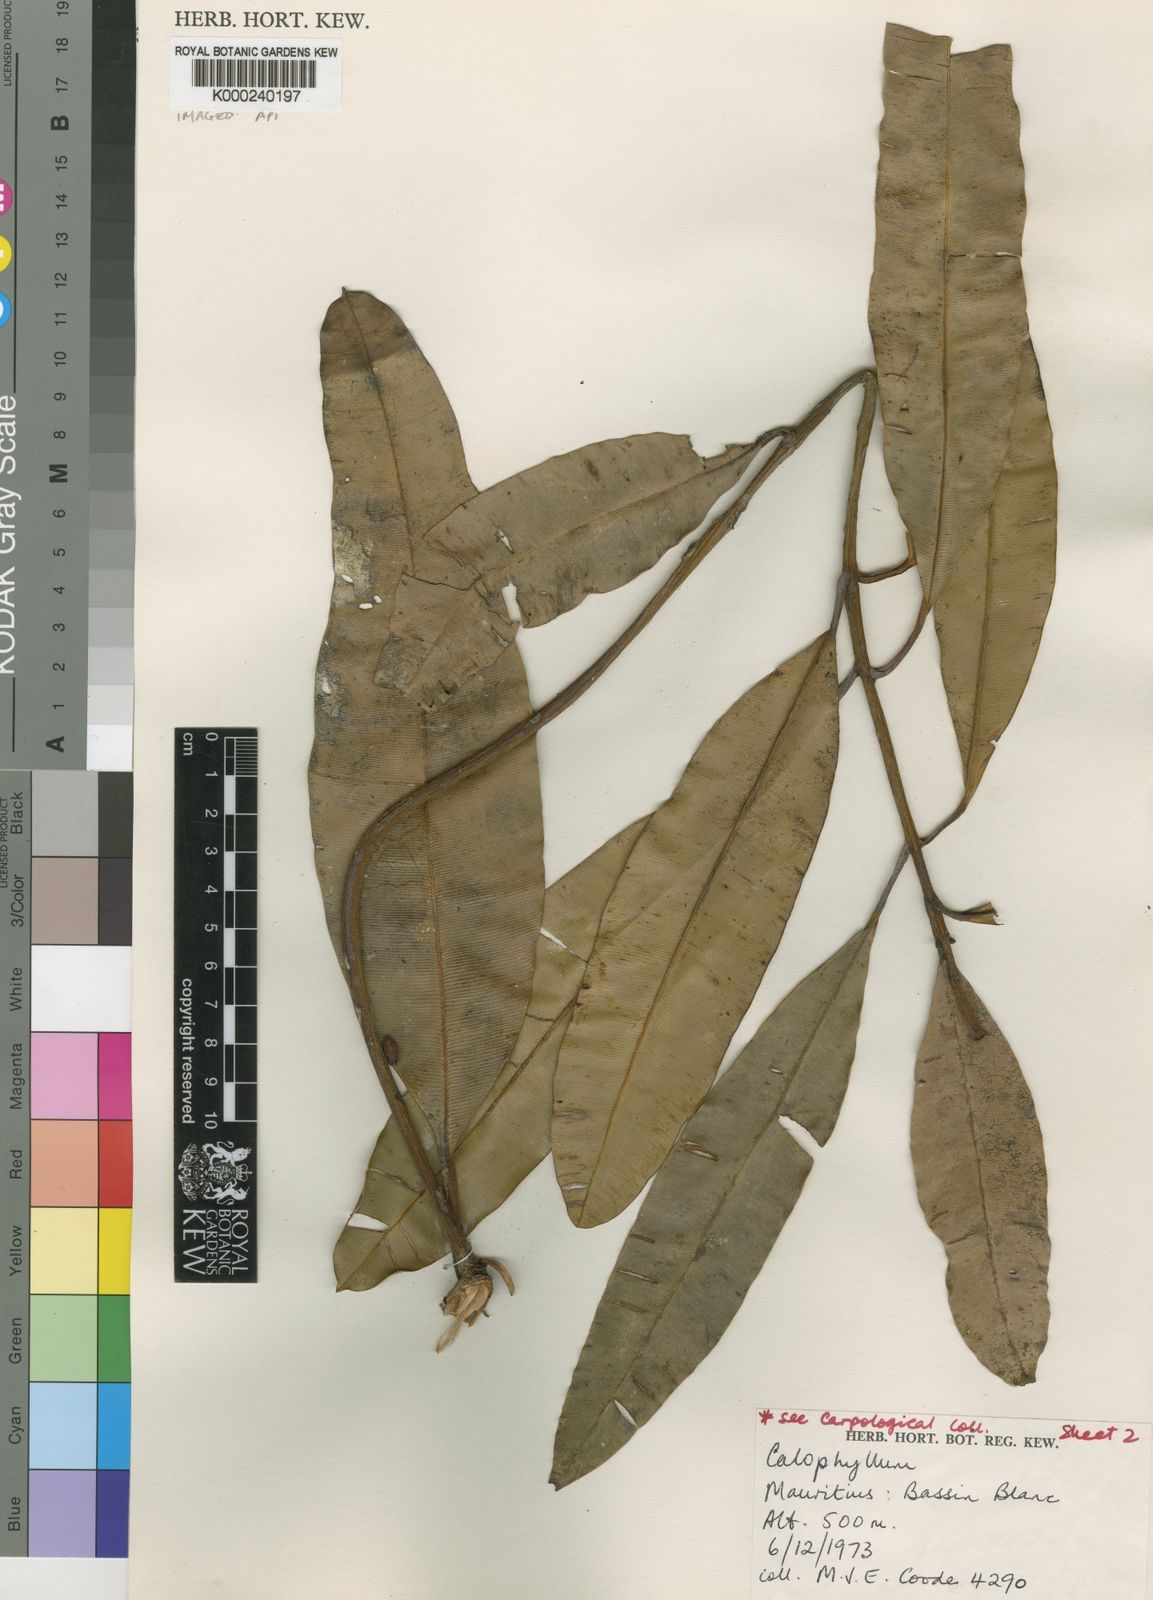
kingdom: Plantae
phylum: Tracheophyta
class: Magnoliopsida
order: Malpighiales
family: Calophyllaceae
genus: Calophyllum
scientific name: Calophyllum eputamen
